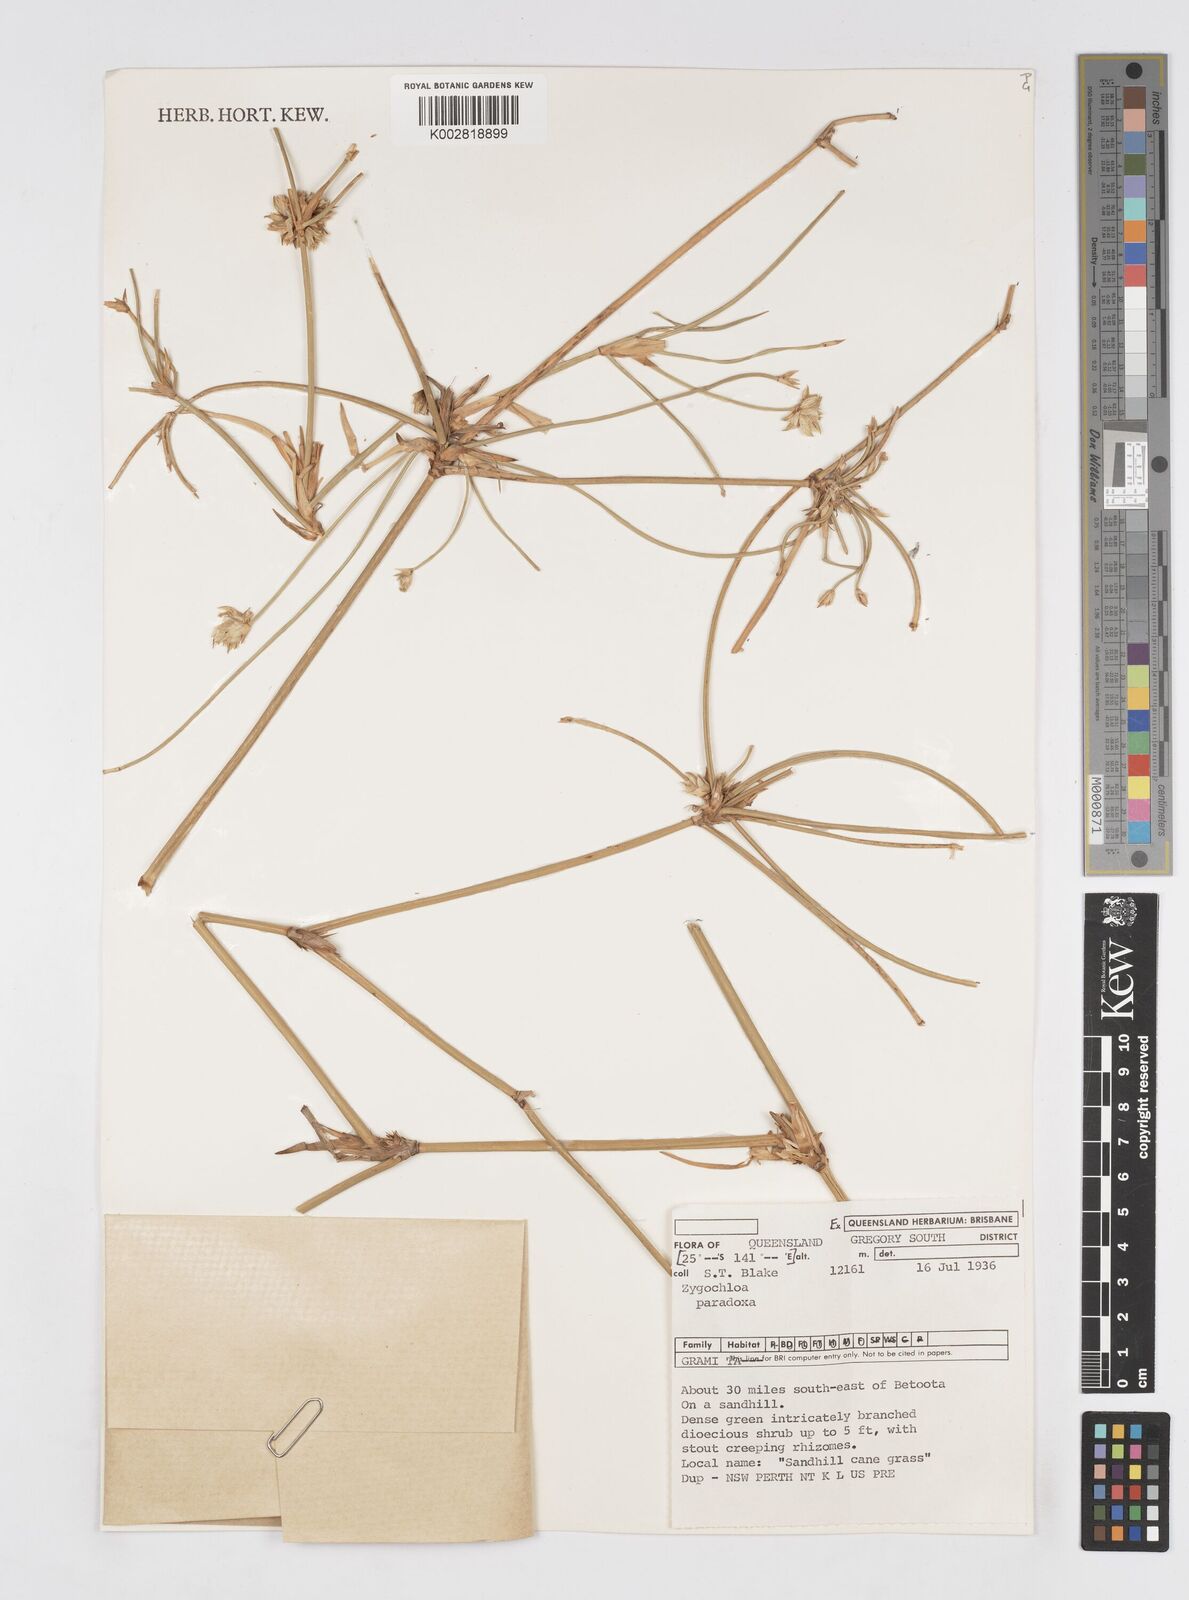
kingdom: Plantae
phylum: Tracheophyta
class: Liliopsida
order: Poales
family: Poaceae
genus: Zygochloa
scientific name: Zygochloa paradoxa
